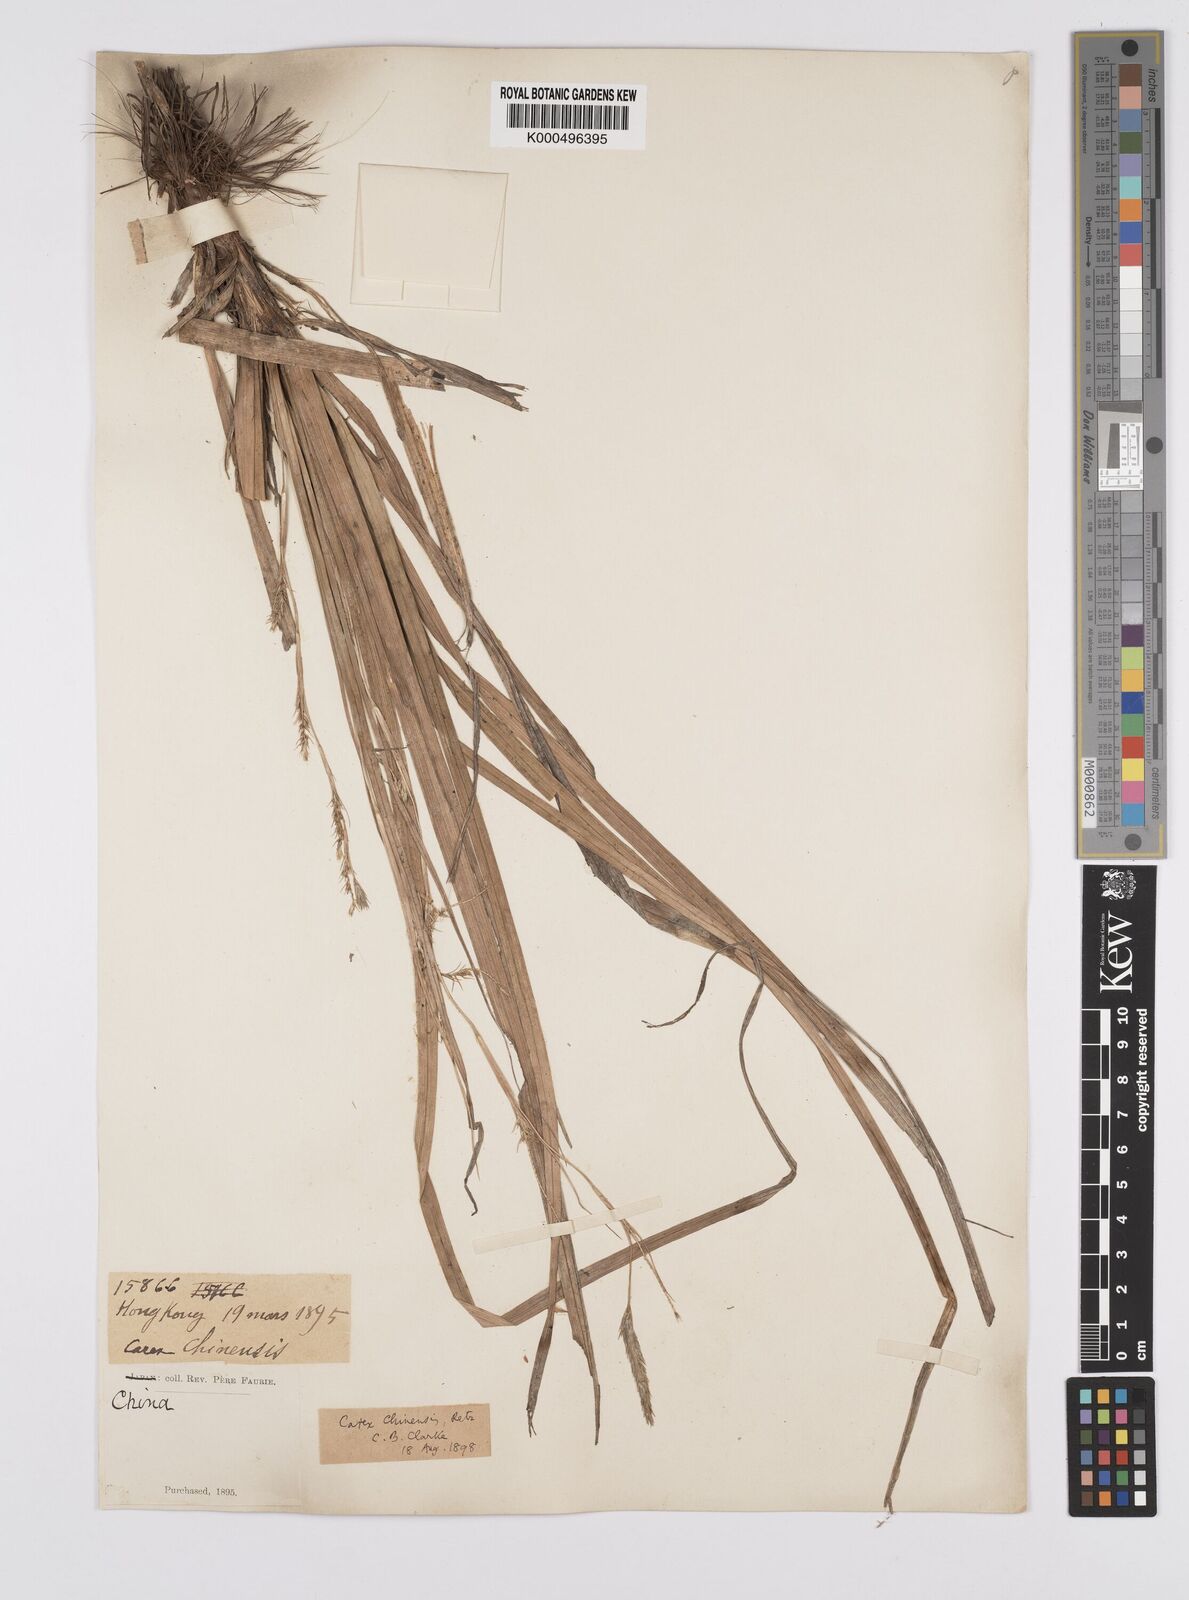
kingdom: Plantae
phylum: Tracheophyta
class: Liliopsida
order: Poales
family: Cyperaceae
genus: Carex
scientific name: Carex chinensis
